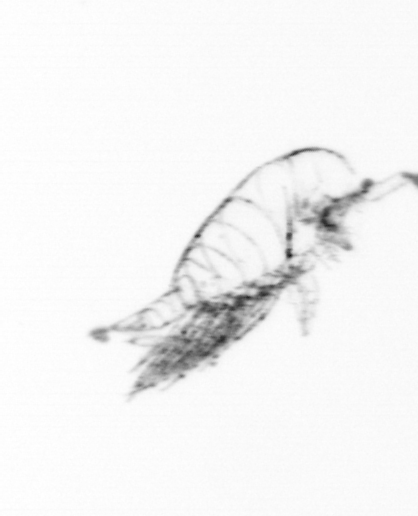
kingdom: Animalia
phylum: Arthropoda
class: Copepoda
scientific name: Copepoda
